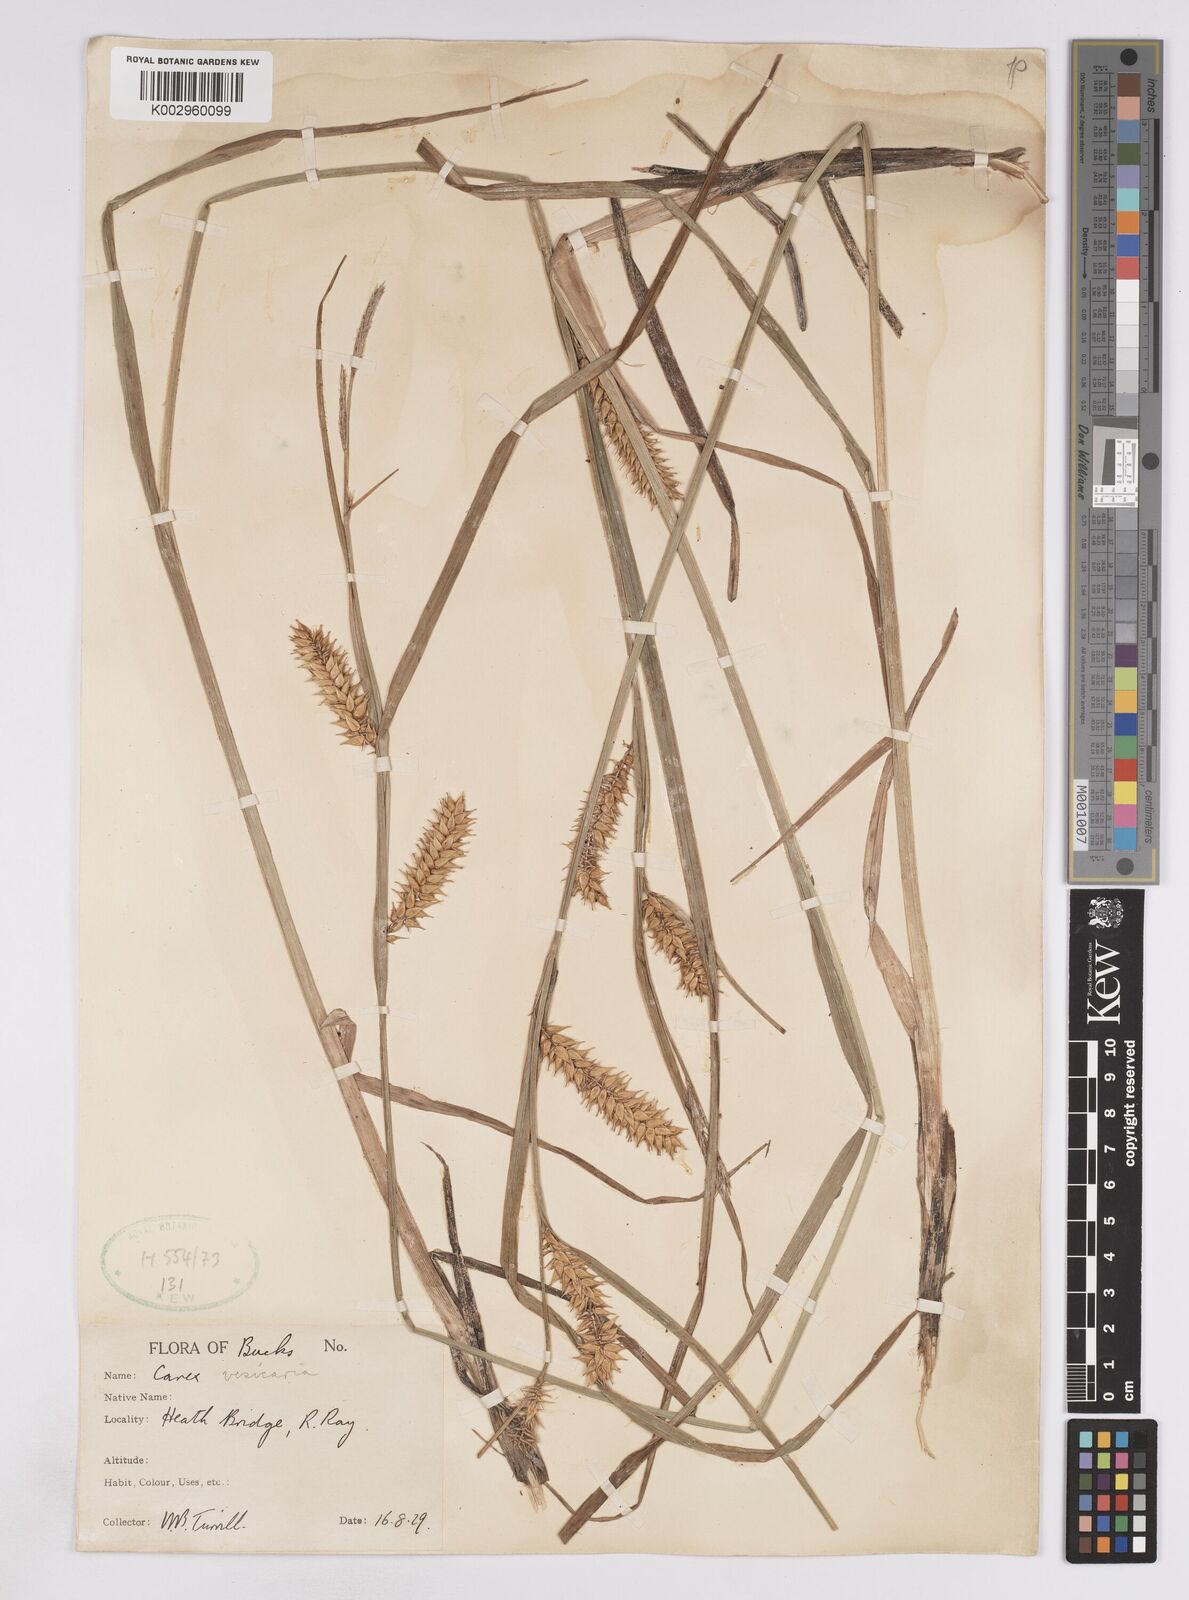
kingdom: Plantae
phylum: Tracheophyta
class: Liliopsida
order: Poales
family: Cyperaceae
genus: Carex
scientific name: Carex vesicaria
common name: Bladder-sedge
